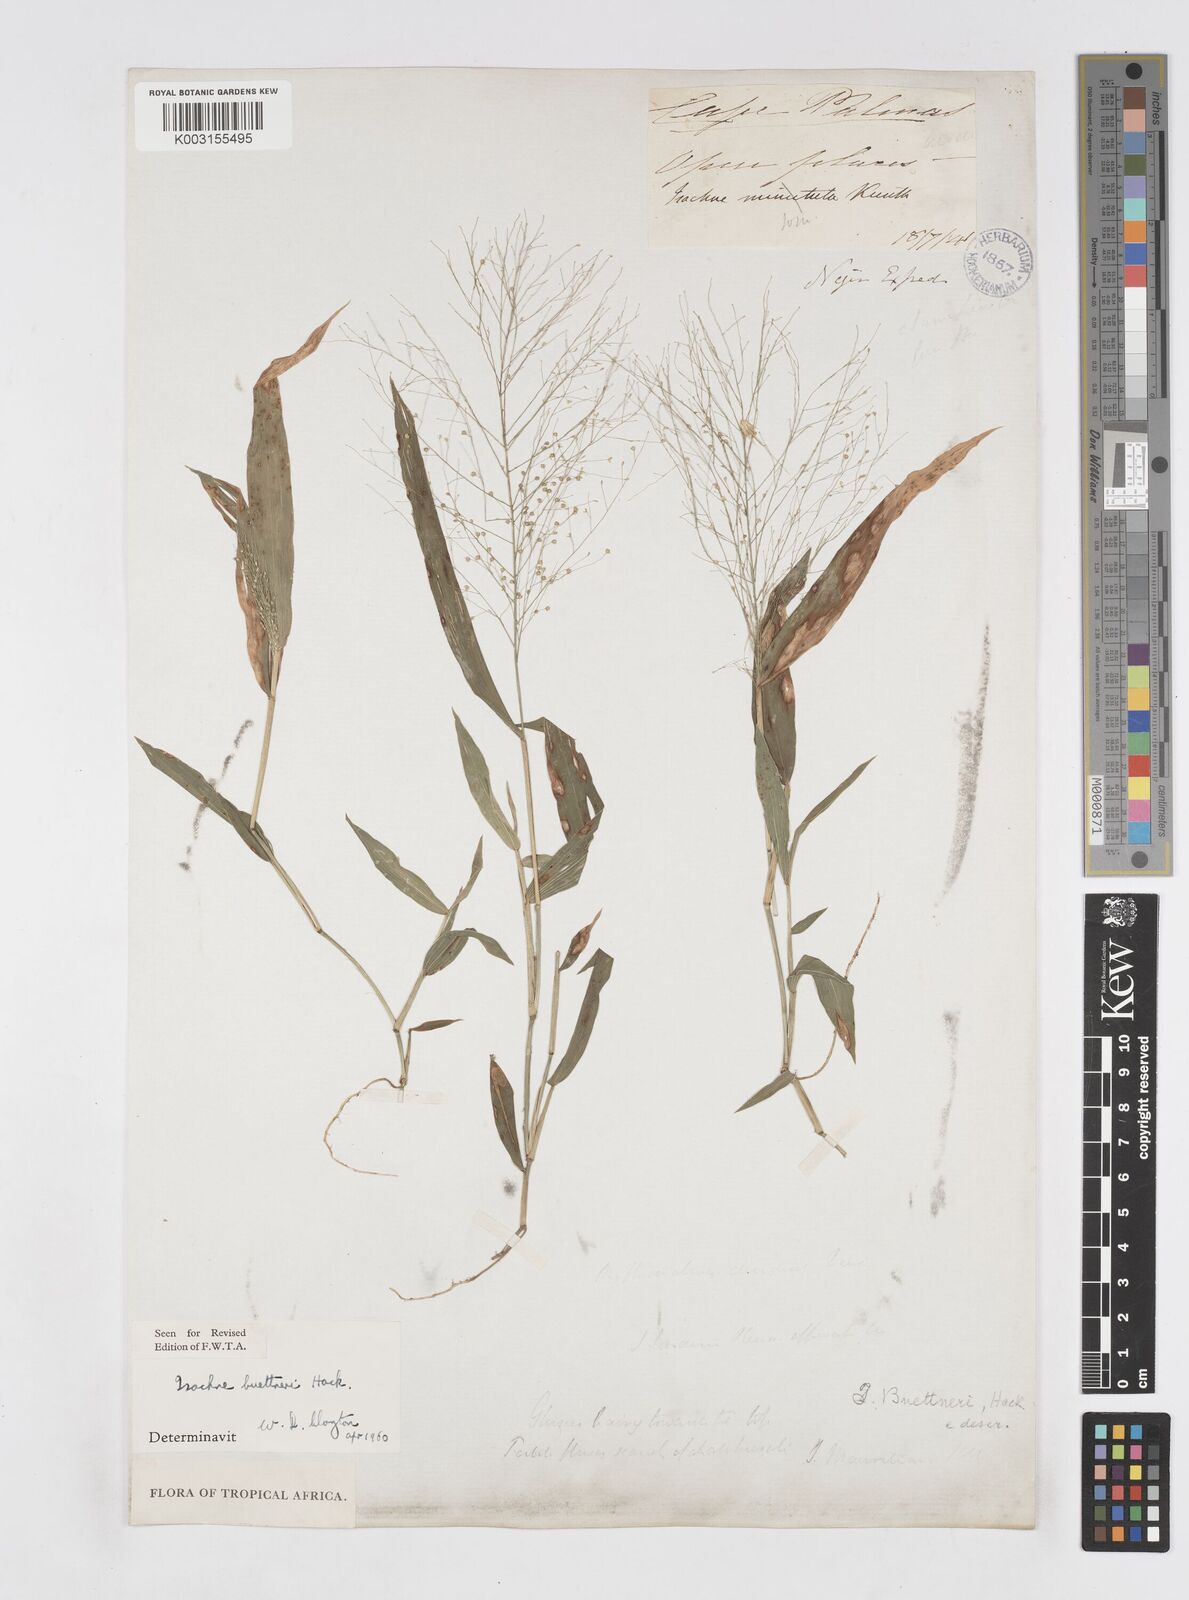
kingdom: Plantae
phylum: Tracheophyta
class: Liliopsida
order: Poales
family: Poaceae
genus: Isachne
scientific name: Isachne albens
